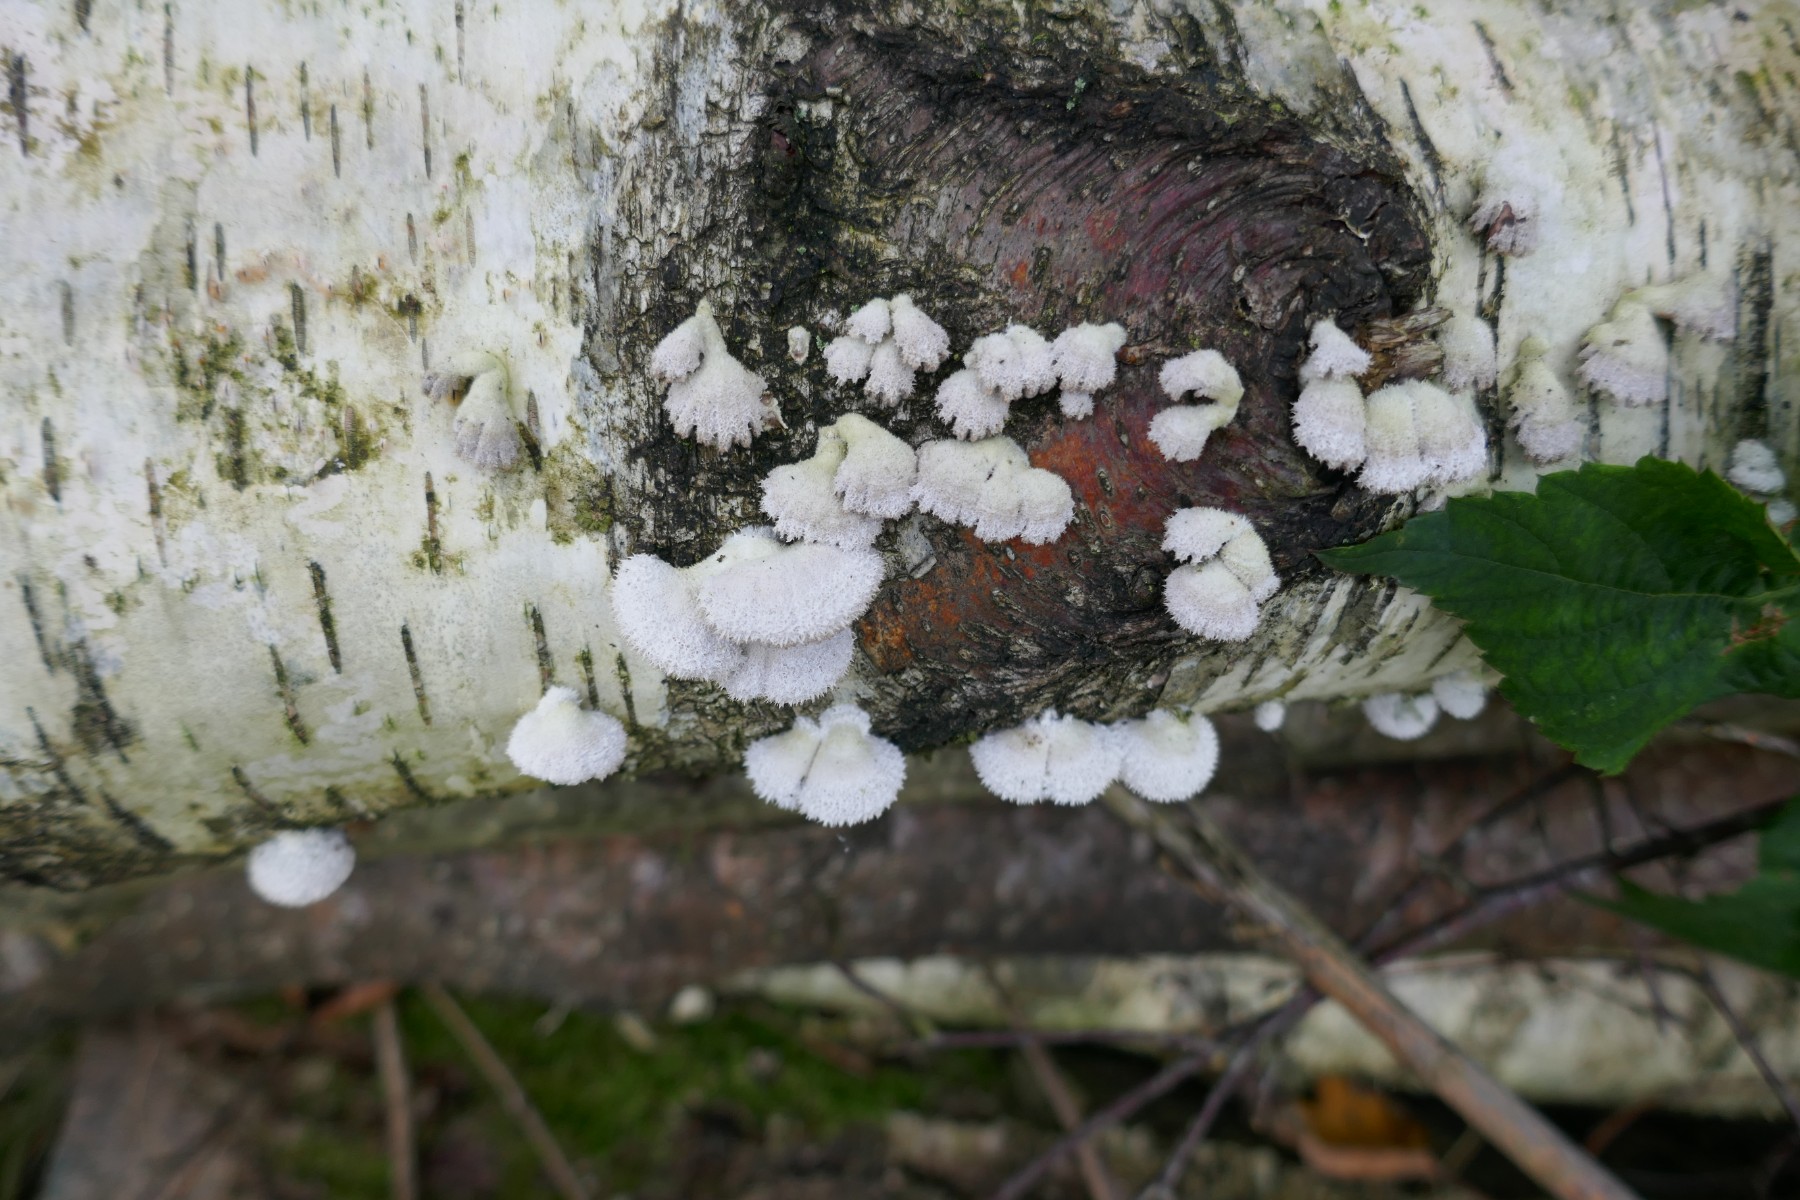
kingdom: Fungi
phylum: Basidiomycota
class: Agaricomycetes
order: Agaricales
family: Schizophyllaceae
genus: Schizophyllum
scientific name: Schizophyllum commune
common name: kløvblad
